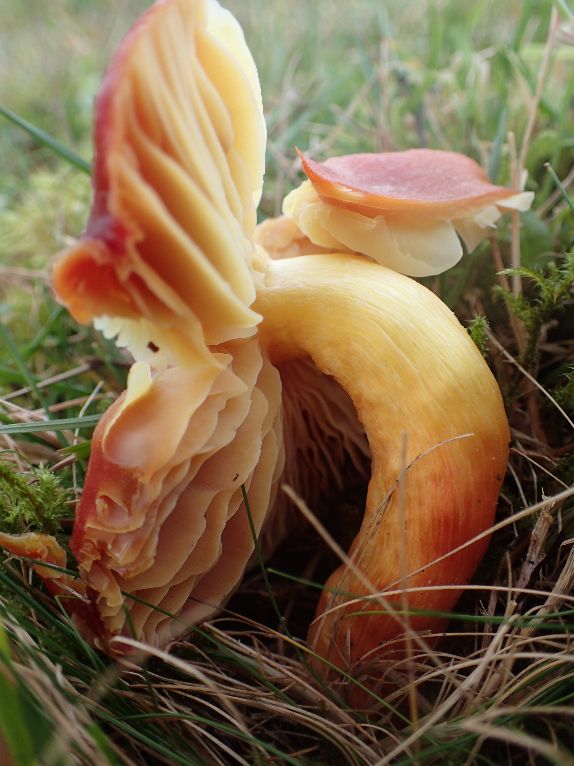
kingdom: Fungi
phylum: Basidiomycota
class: Agaricomycetes
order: Agaricales
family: Hygrophoraceae
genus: Hygrocybe
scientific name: Hygrocybe punicea
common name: skarlagen-vokshat
